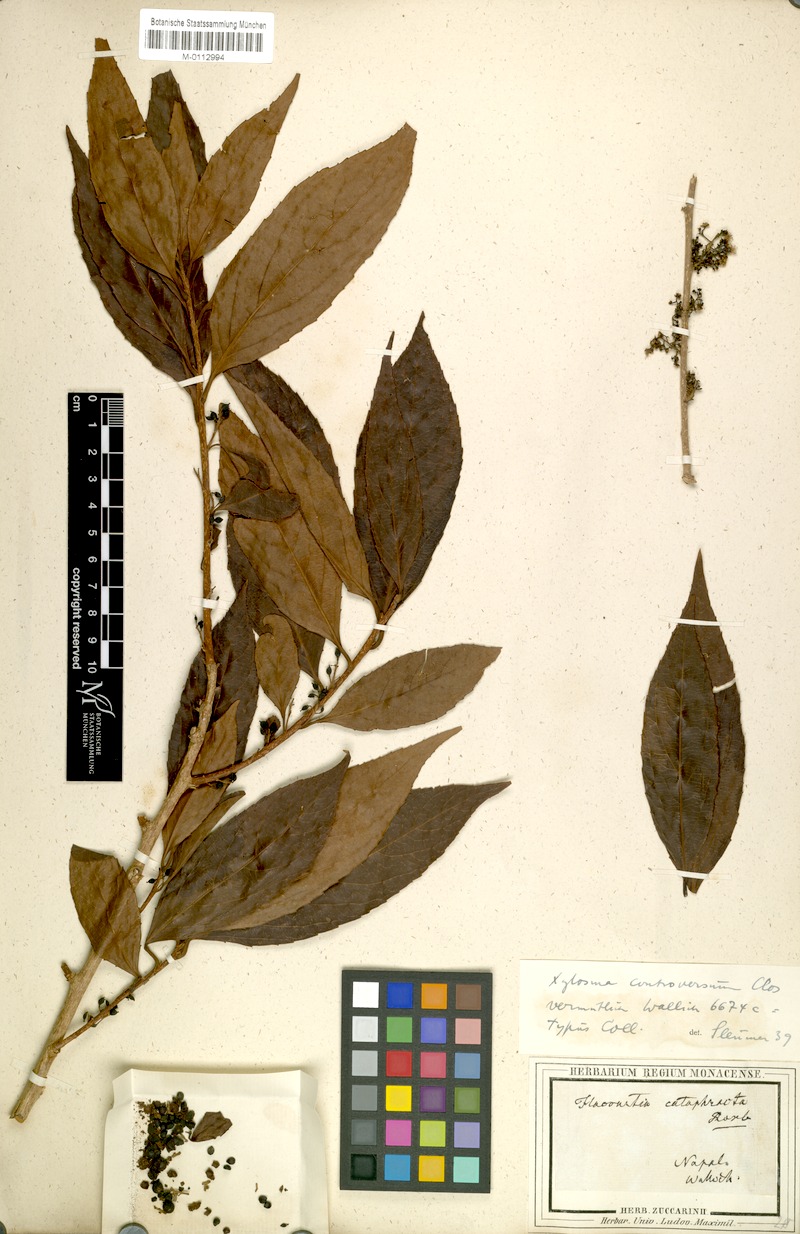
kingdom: Plantae
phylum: Tracheophyta
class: Magnoliopsida
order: Malpighiales
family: Salicaceae
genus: Xylosma
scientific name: Xylosma controversa
